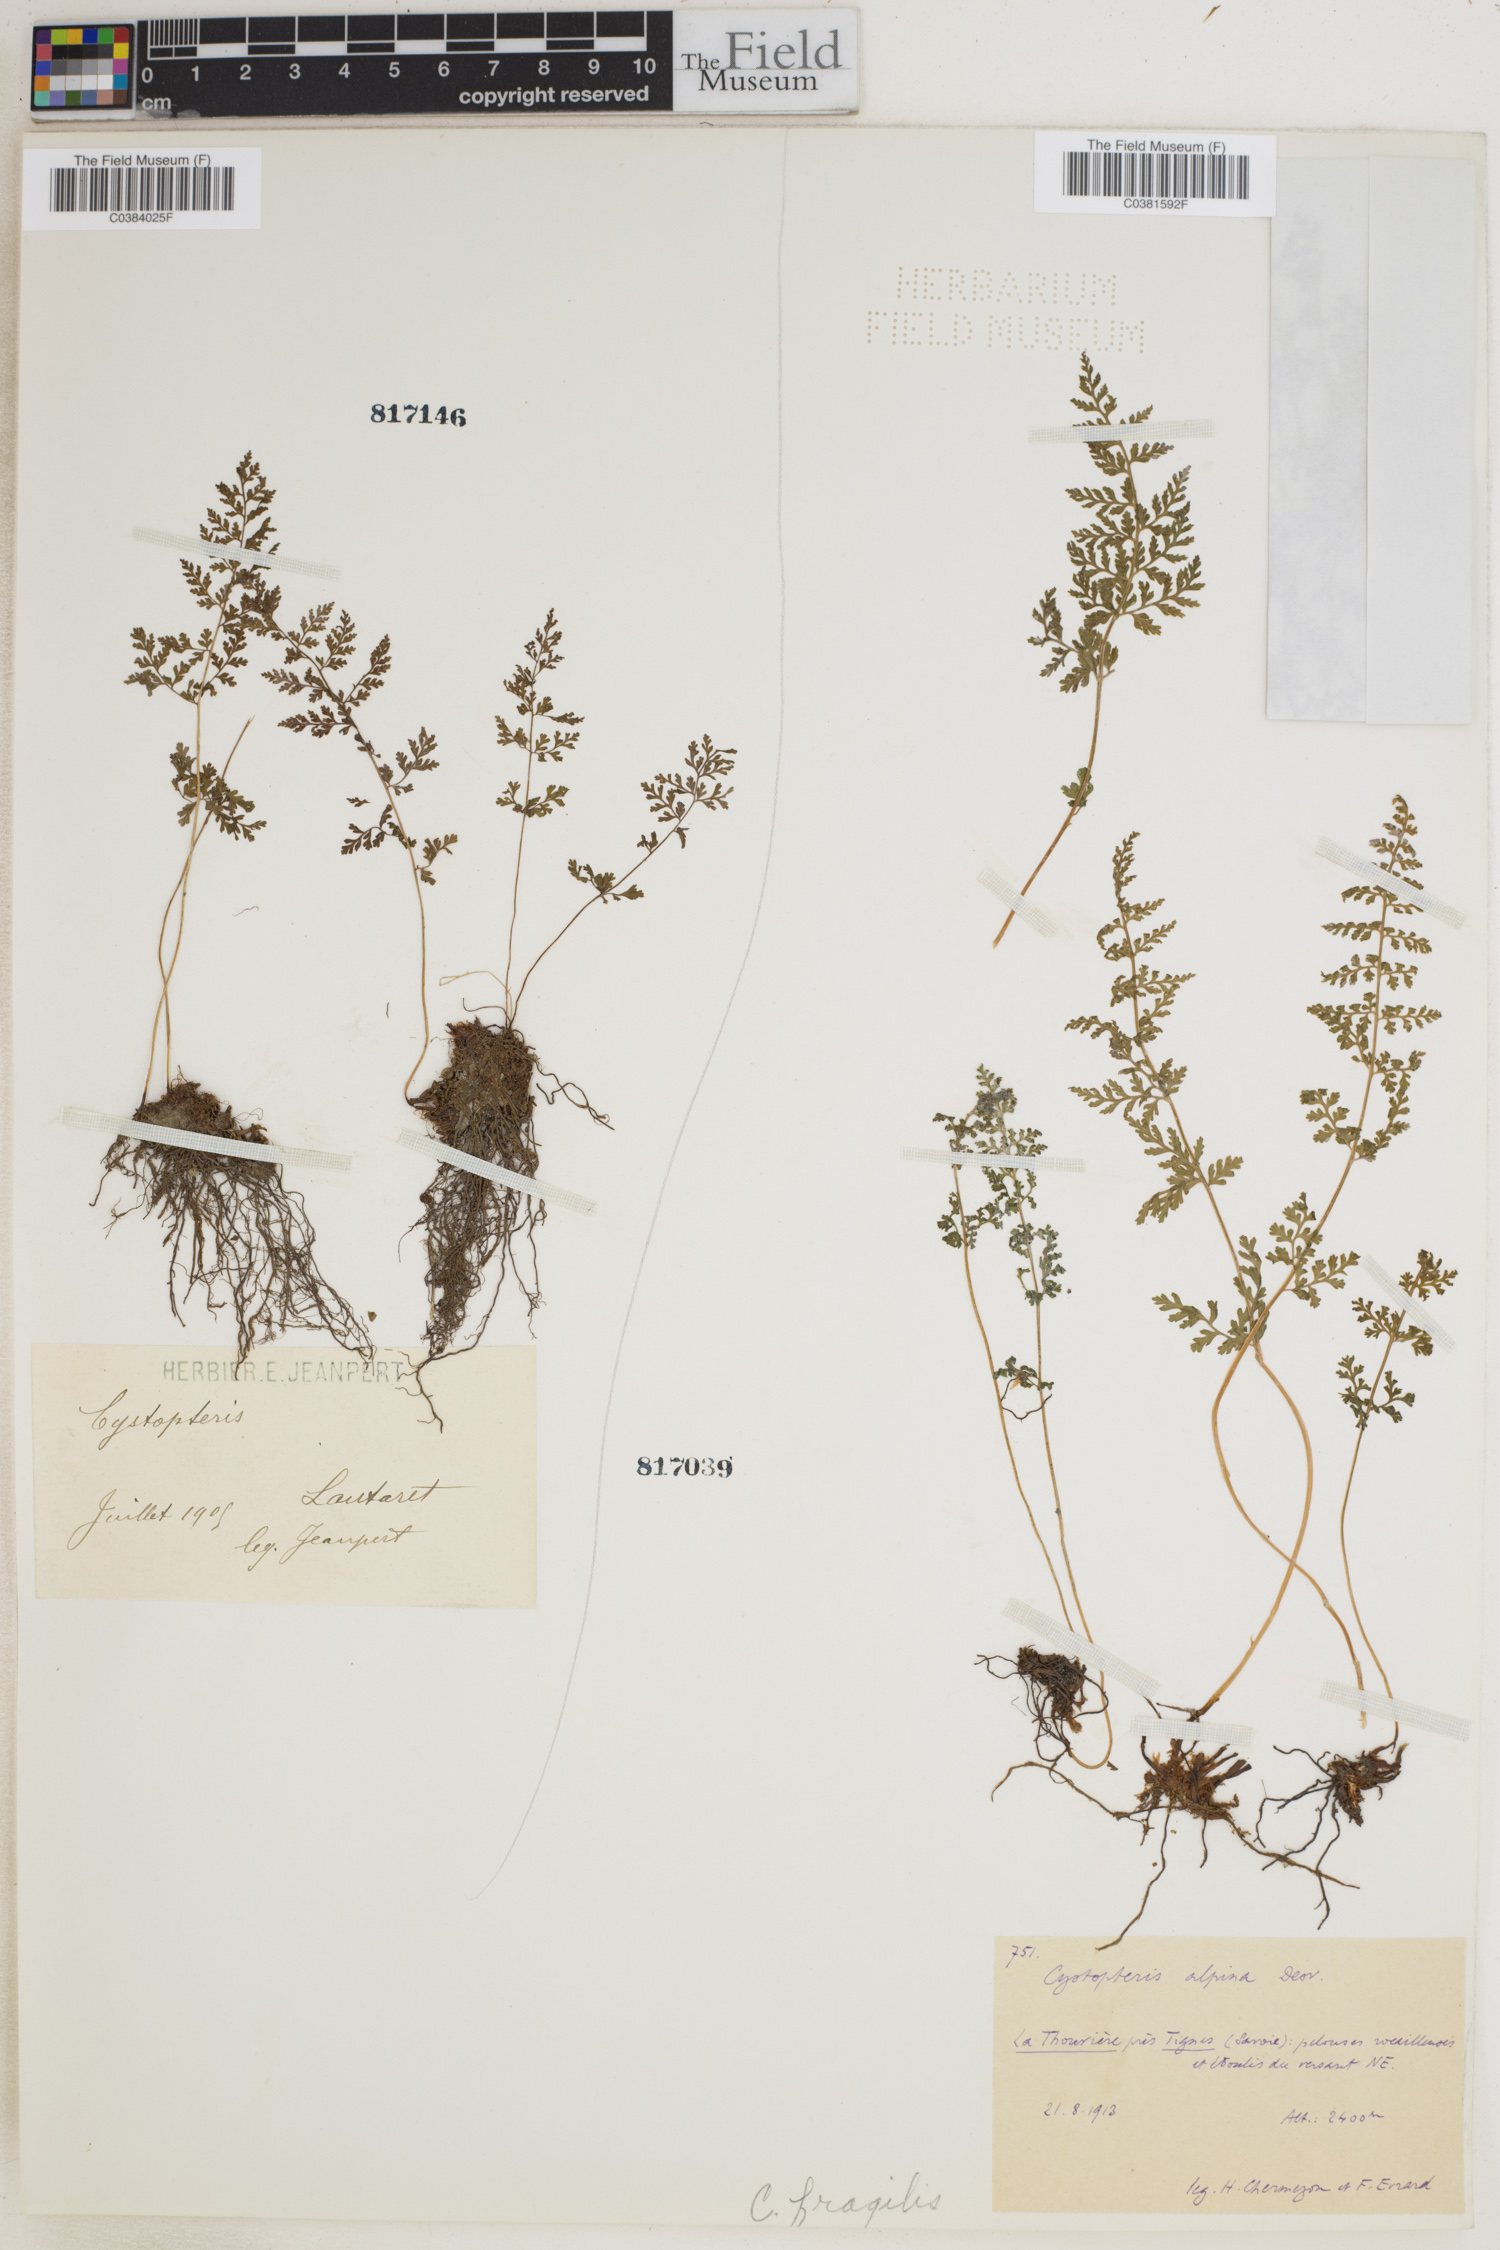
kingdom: Plantae
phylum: Tracheophyta
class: Polypodiopsida
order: Polypodiales
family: Cystopteridaceae
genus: Cystopteris
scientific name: Cystopteris fragilis
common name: Brittle bladder fern
